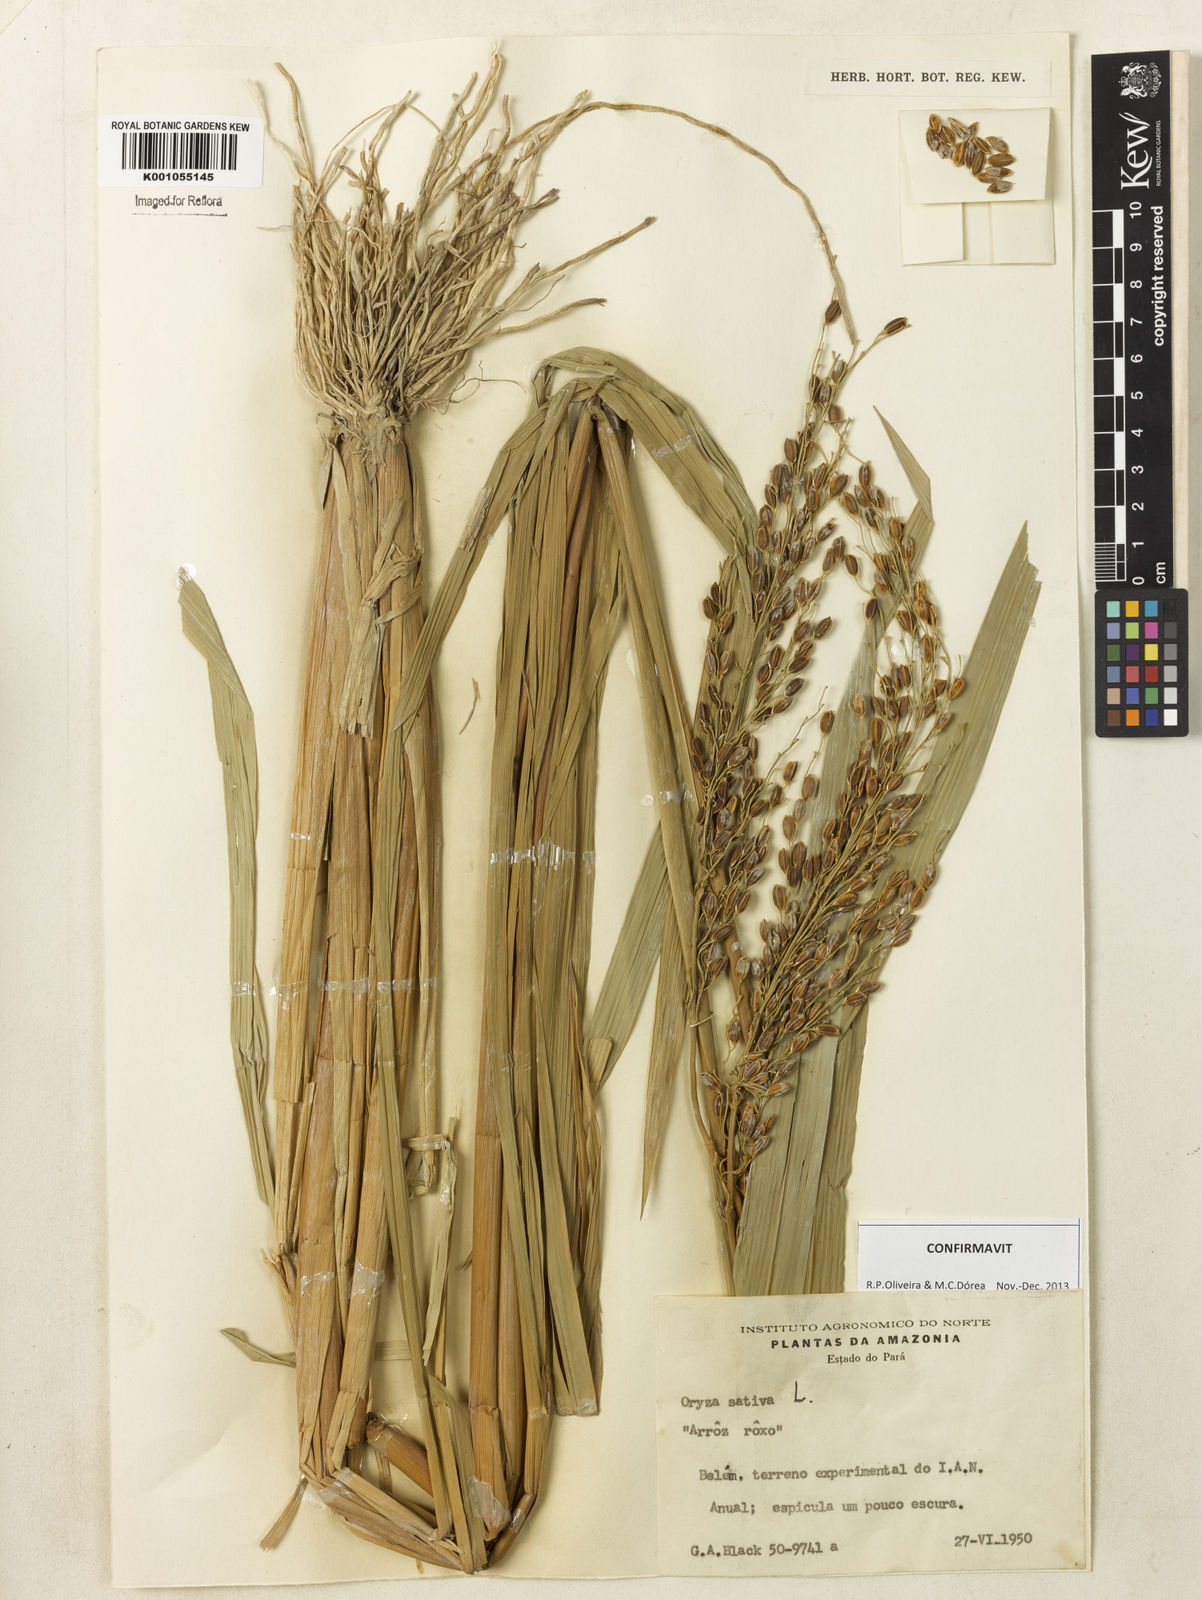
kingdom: Plantae
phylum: Tracheophyta
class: Liliopsida
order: Poales
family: Poaceae
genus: Oryza
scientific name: Oryza sativa
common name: Rice
